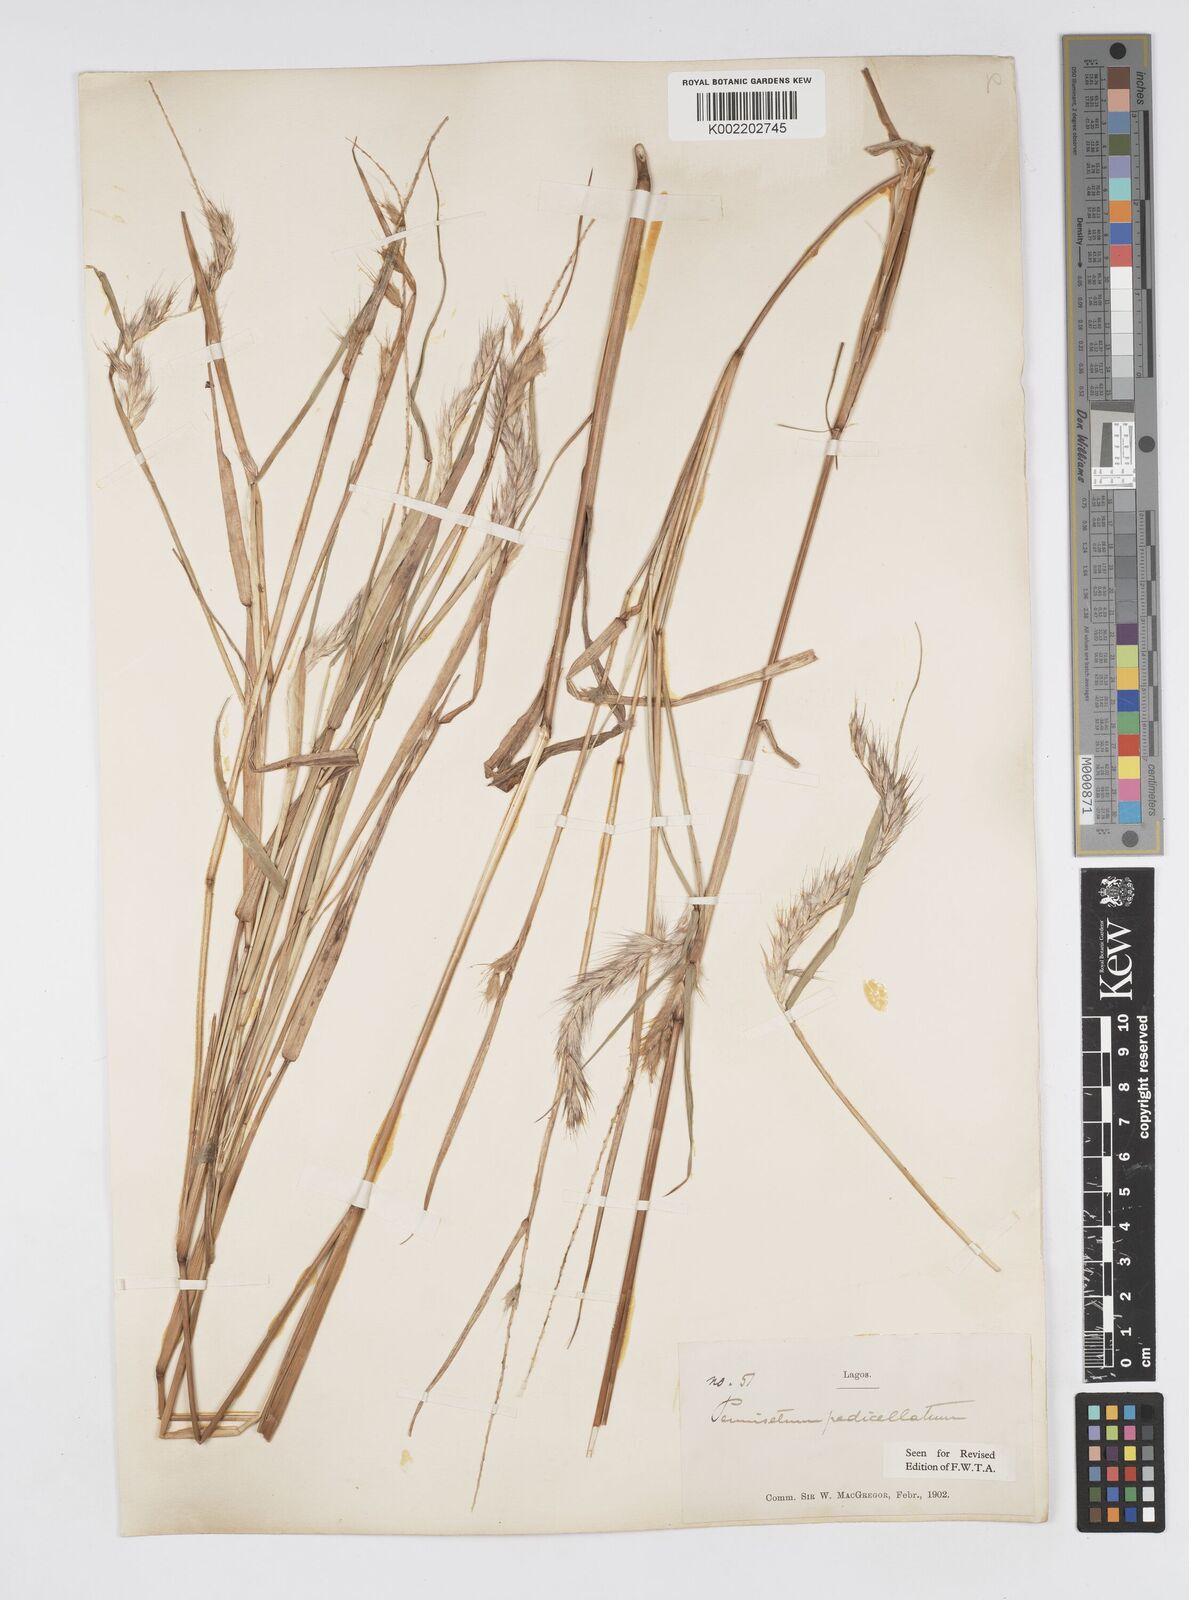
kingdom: Plantae
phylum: Tracheophyta
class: Liliopsida
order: Poales
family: Poaceae
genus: Cenchrus
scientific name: Cenchrus pedicellatus
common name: Hairy fountain grass
